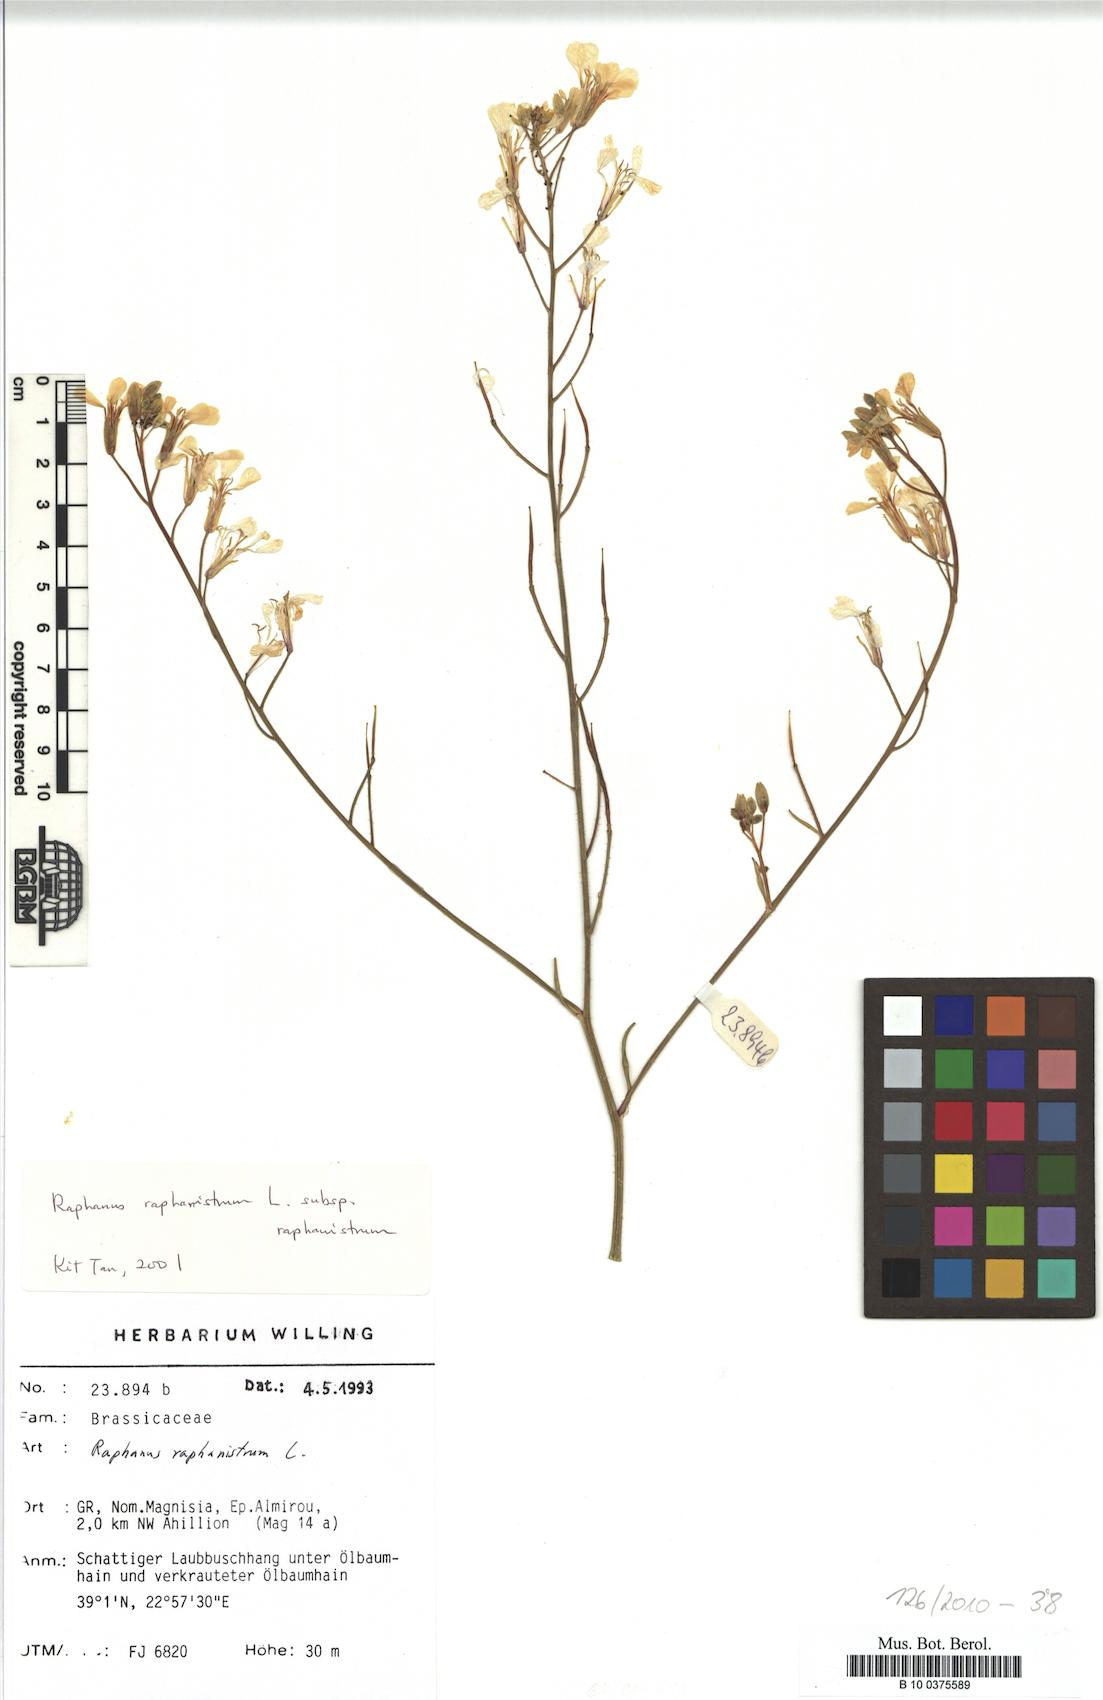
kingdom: Plantae
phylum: Tracheophyta
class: Magnoliopsida
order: Brassicales
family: Brassicaceae
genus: Raphanus
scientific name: Raphanus raphanistrum
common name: Wild radish
